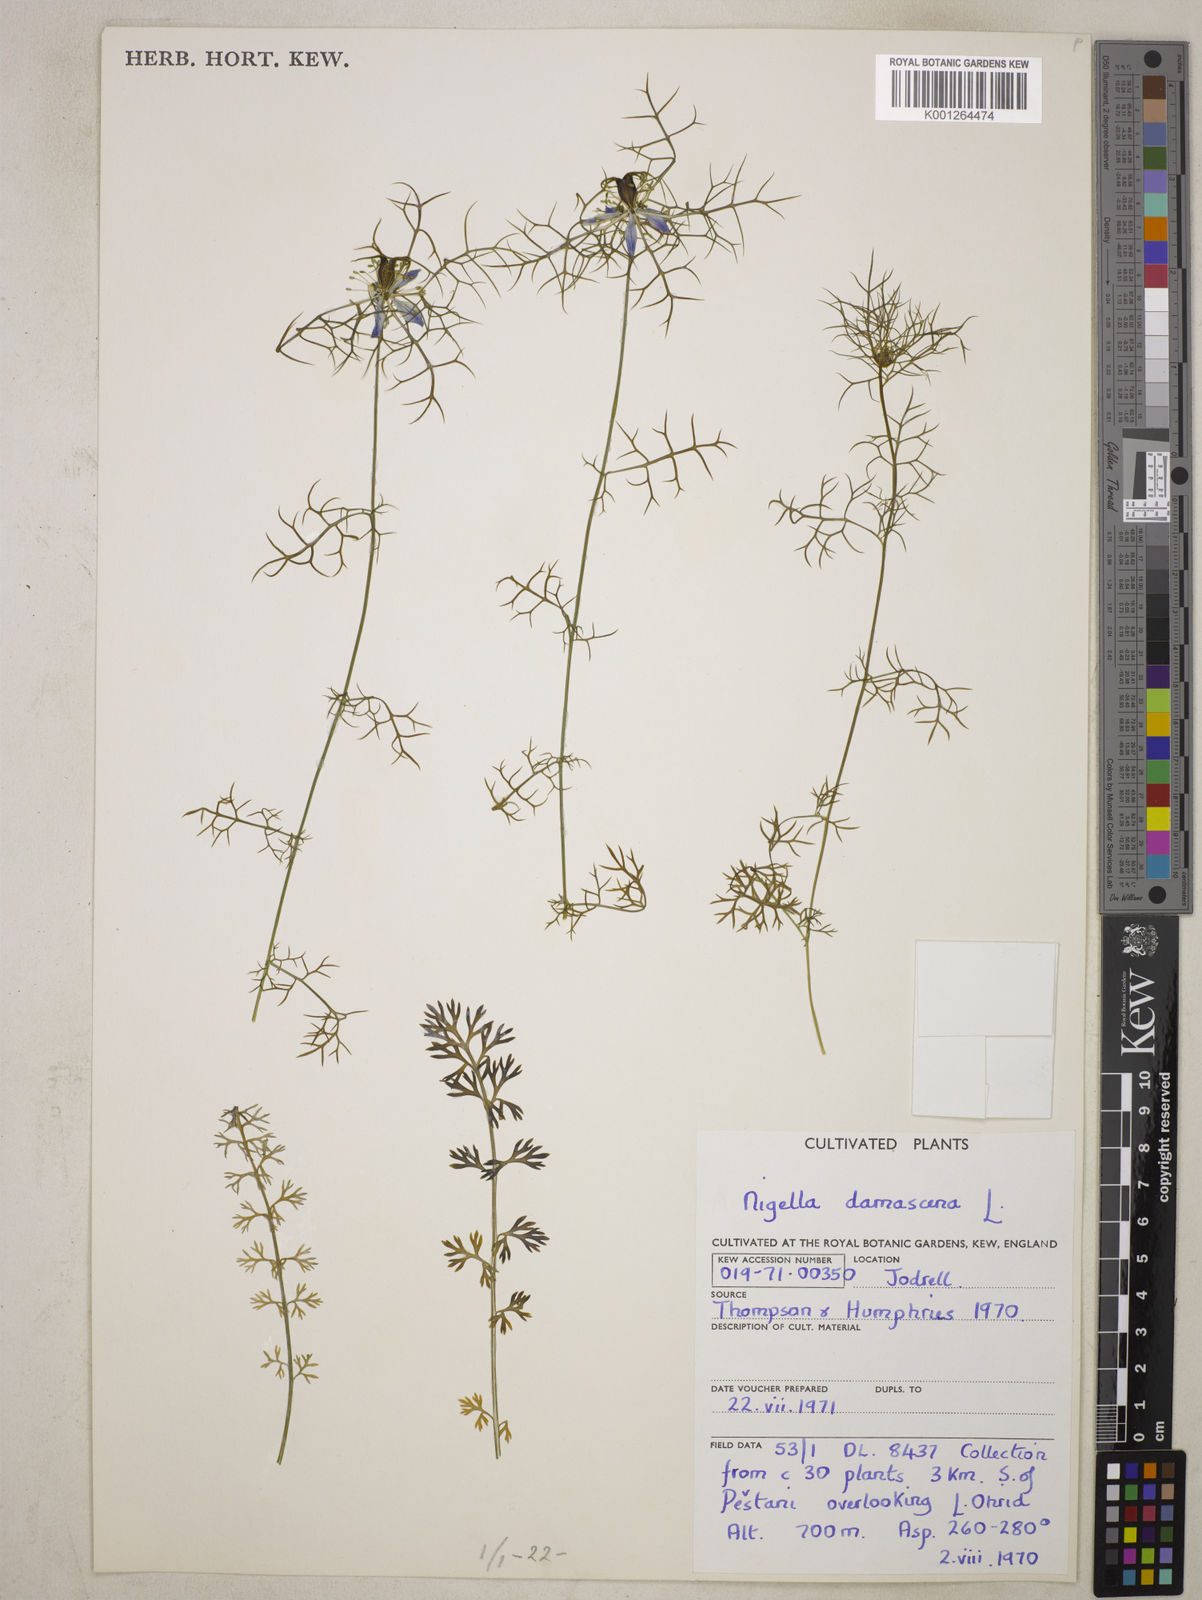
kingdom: Plantae
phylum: Tracheophyta
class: Magnoliopsida
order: Ranunculales
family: Ranunculaceae
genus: Nigella
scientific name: Nigella damascena
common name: Love-in-a-mist
